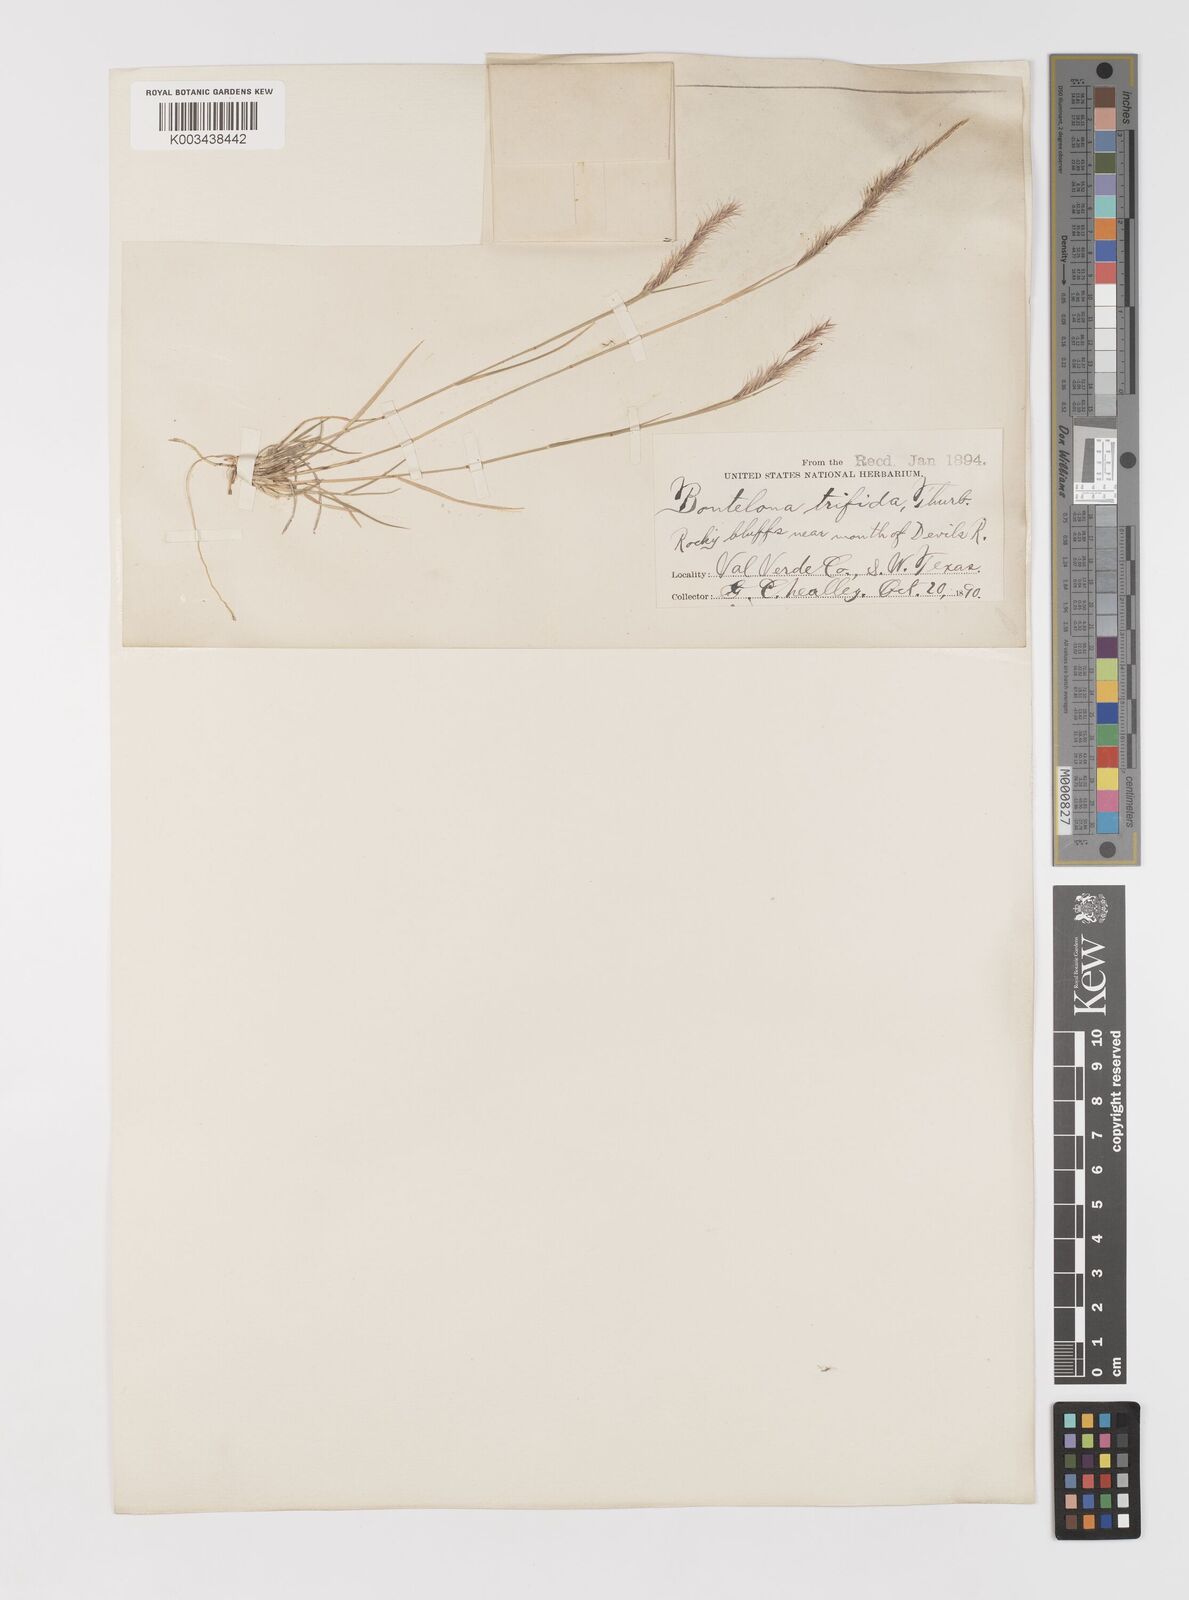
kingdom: Plantae
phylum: Tracheophyta
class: Liliopsida
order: Poales
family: Poaceae
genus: Bouteloua
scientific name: Bouteloua trifida
